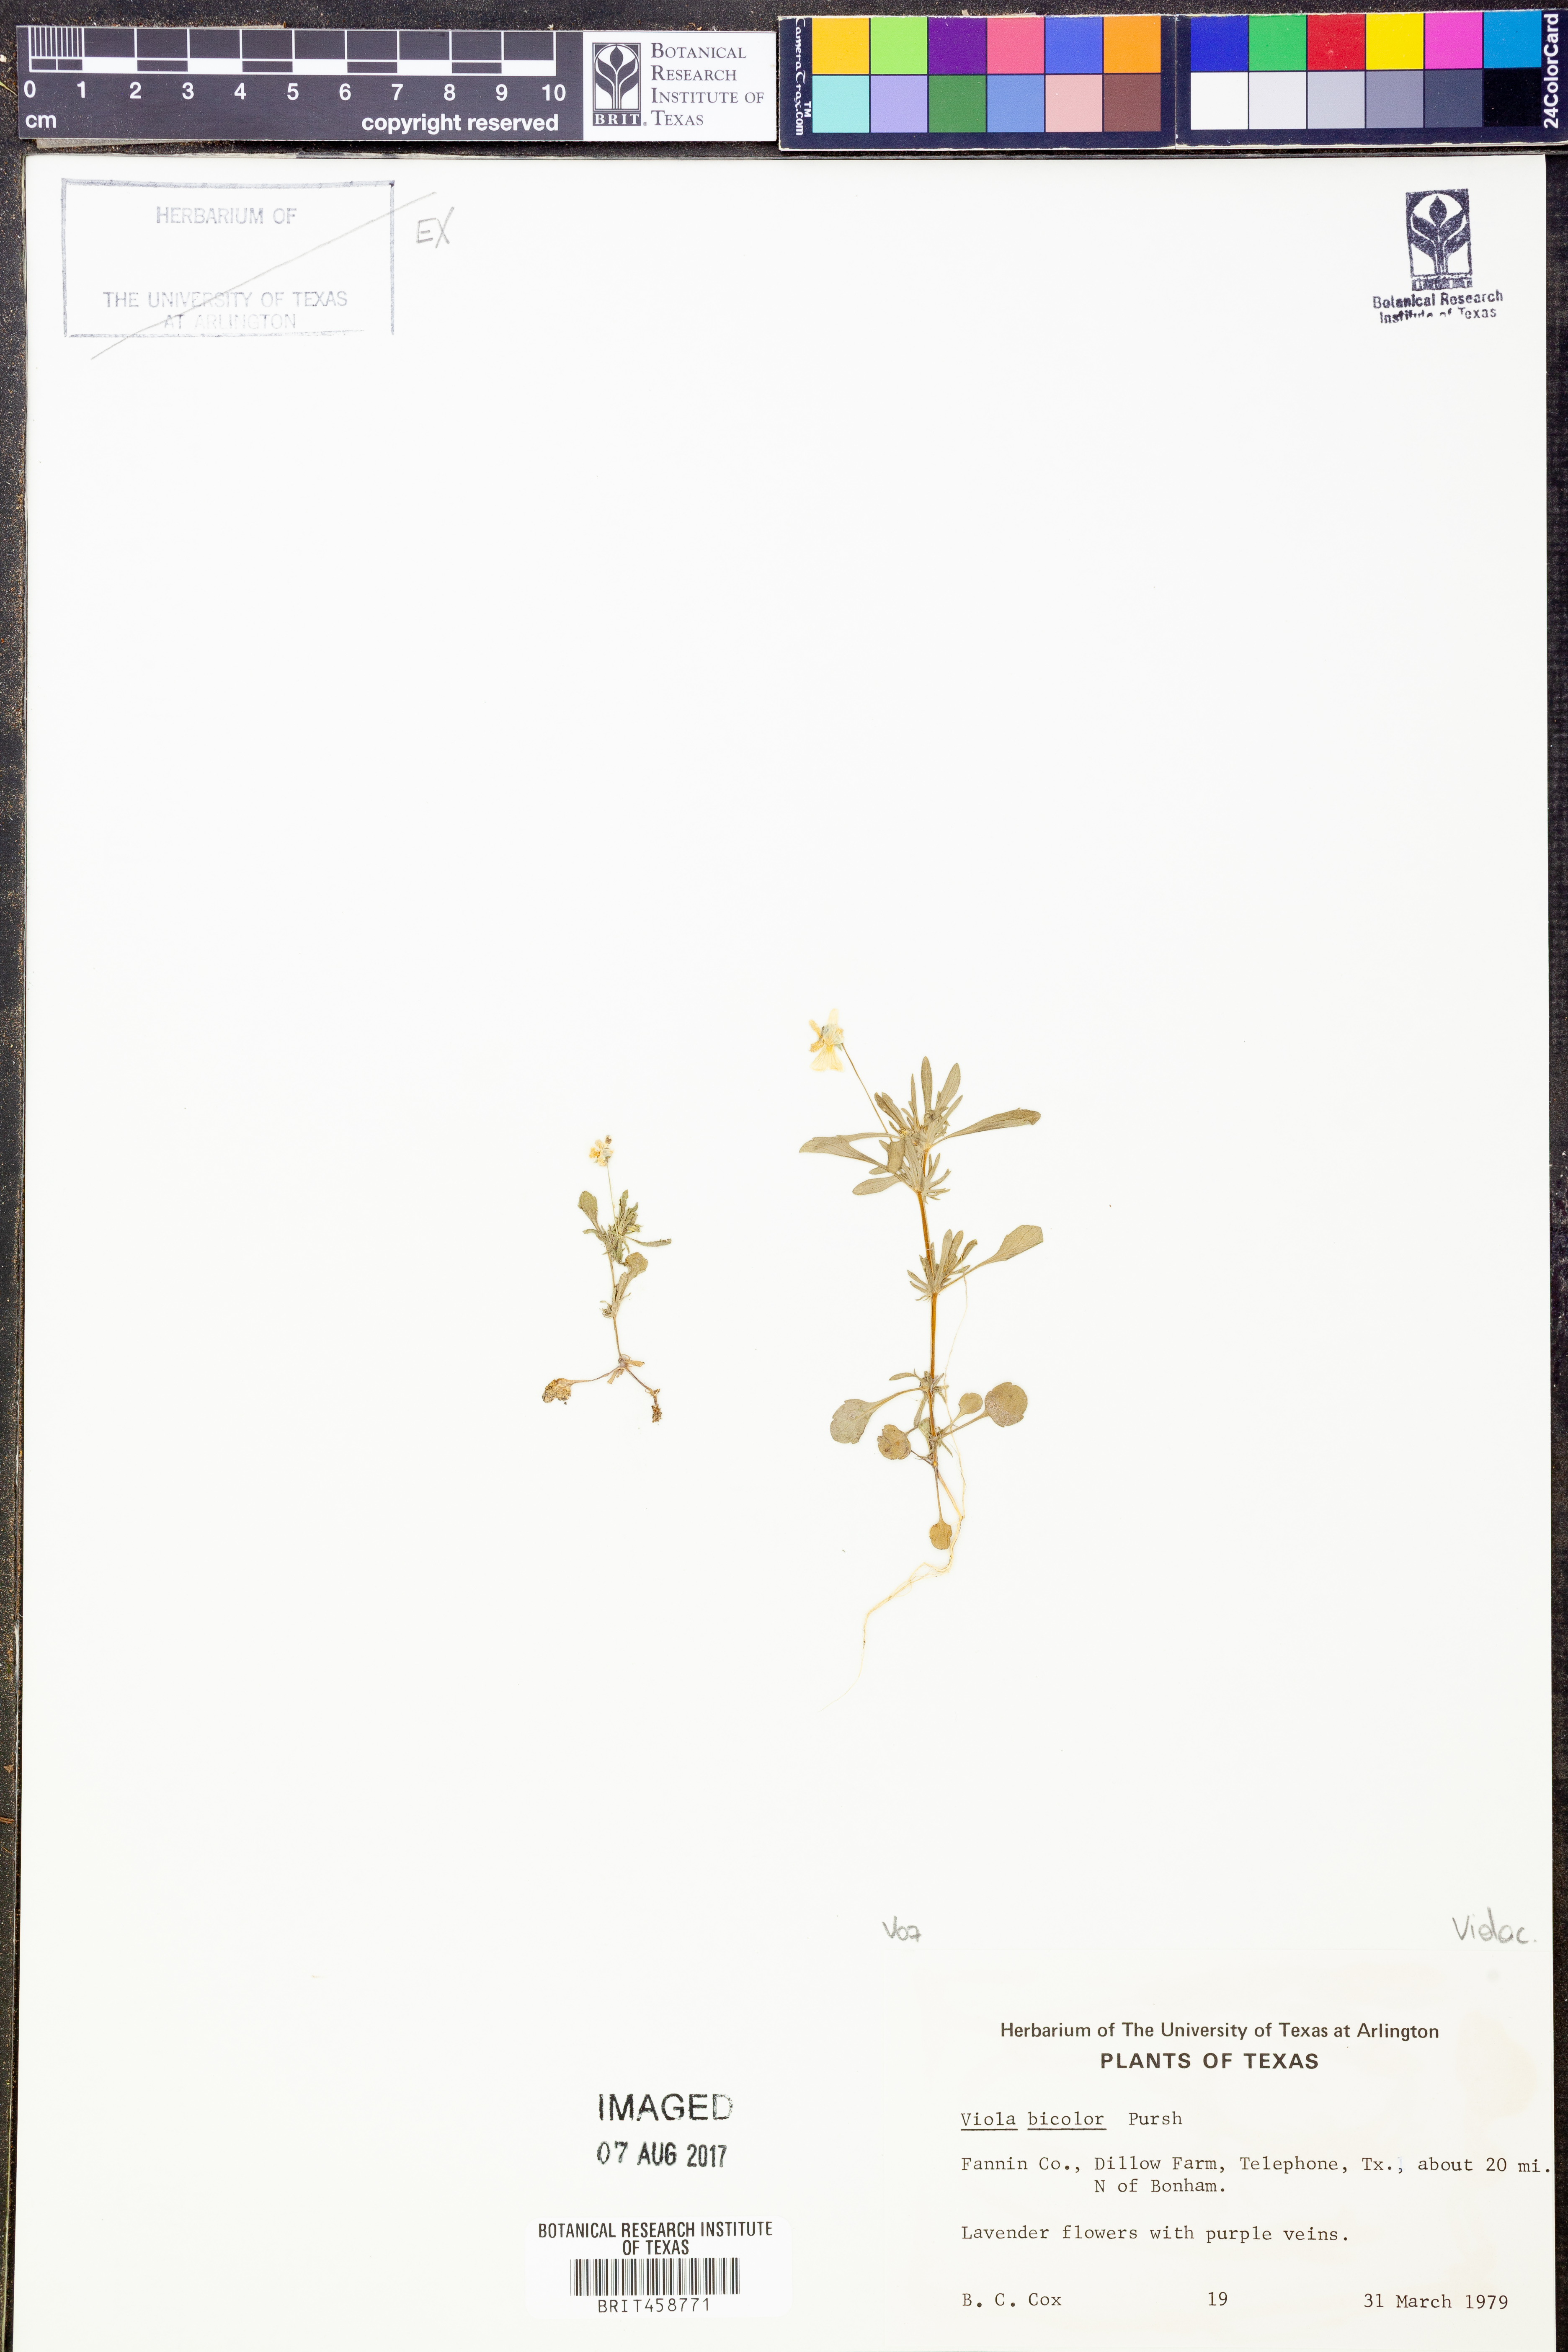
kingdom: Plantae
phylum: Tracheophyta
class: Magnoliopsida
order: Malpighiales
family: Violaceae
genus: Viola
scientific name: Viola rafinesquei
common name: American field pansy
